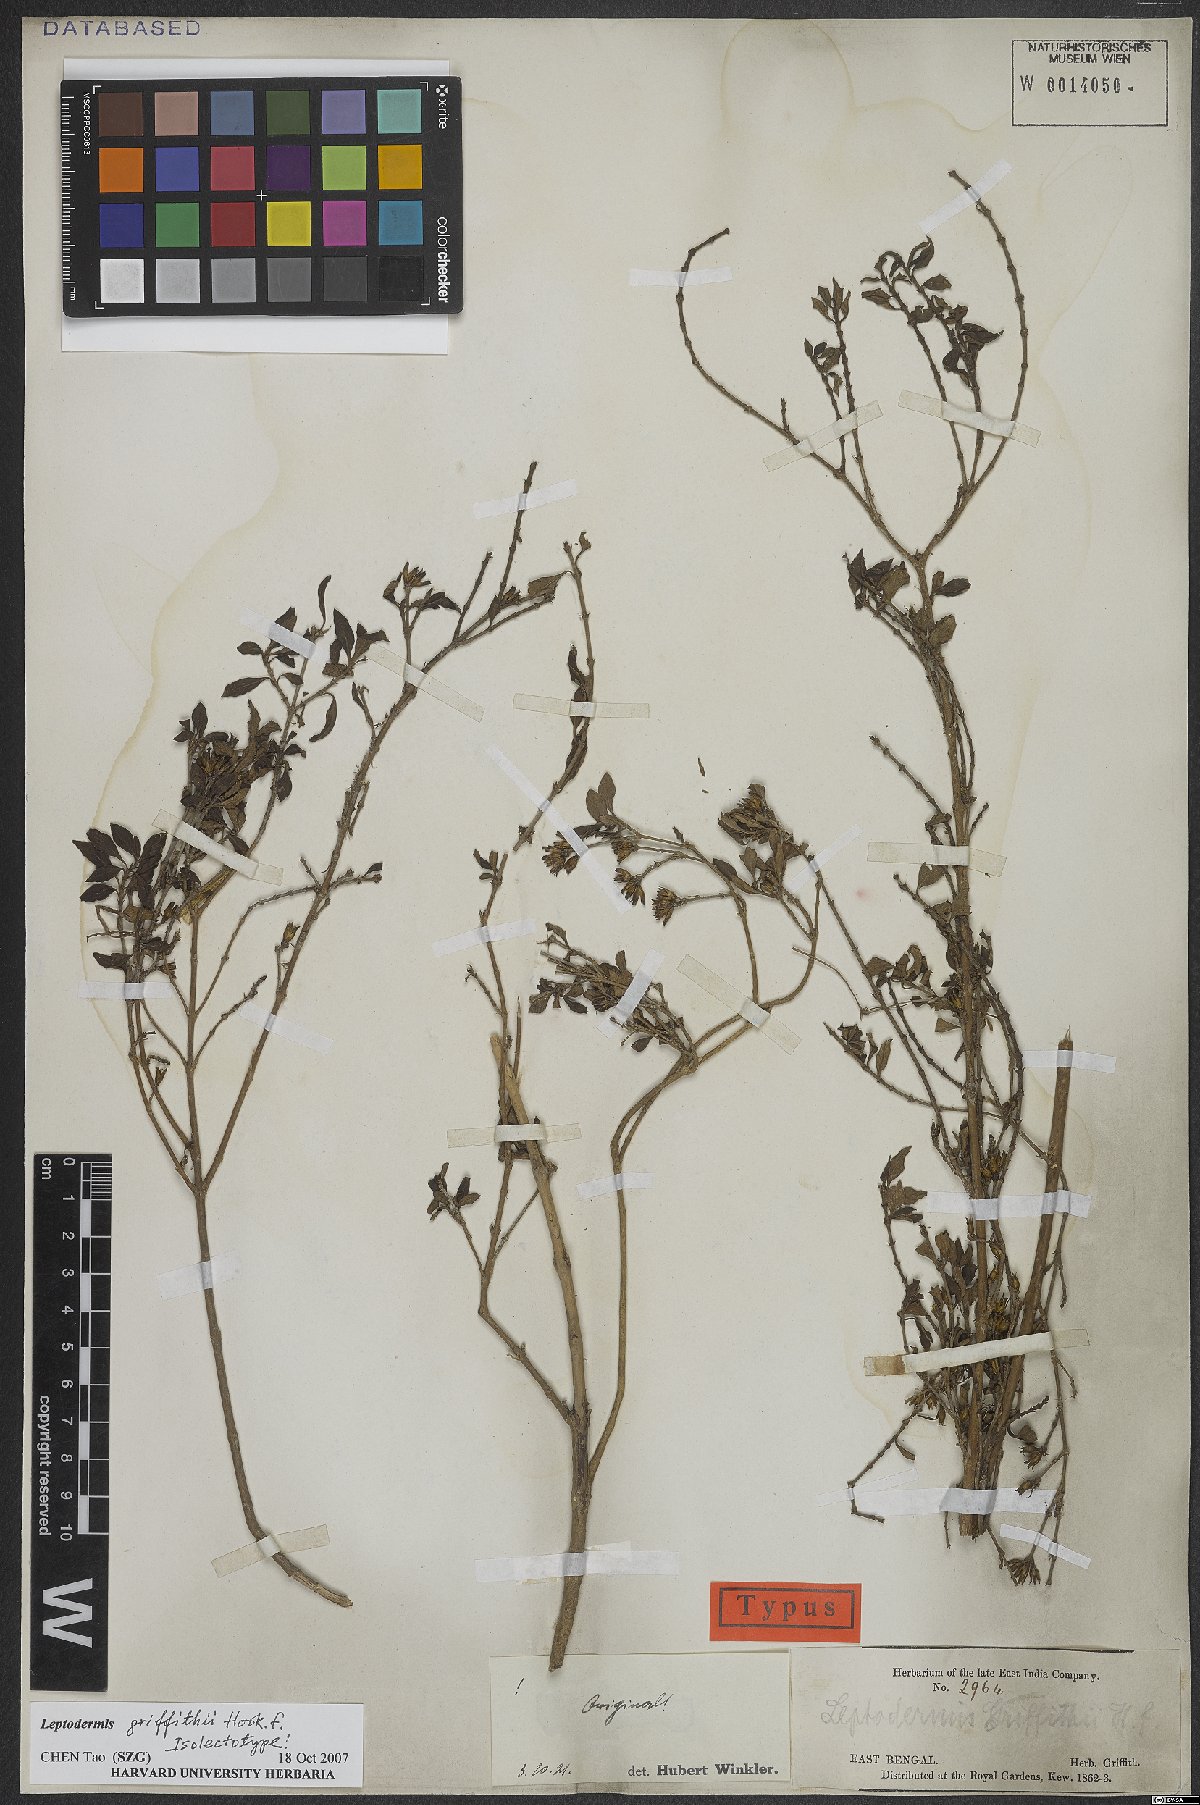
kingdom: Plantae
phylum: Tracheophyta
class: Magnoliopsida
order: Gentianales
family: Rubiaceae
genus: Leptodermis
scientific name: Leptodermis griffithii
